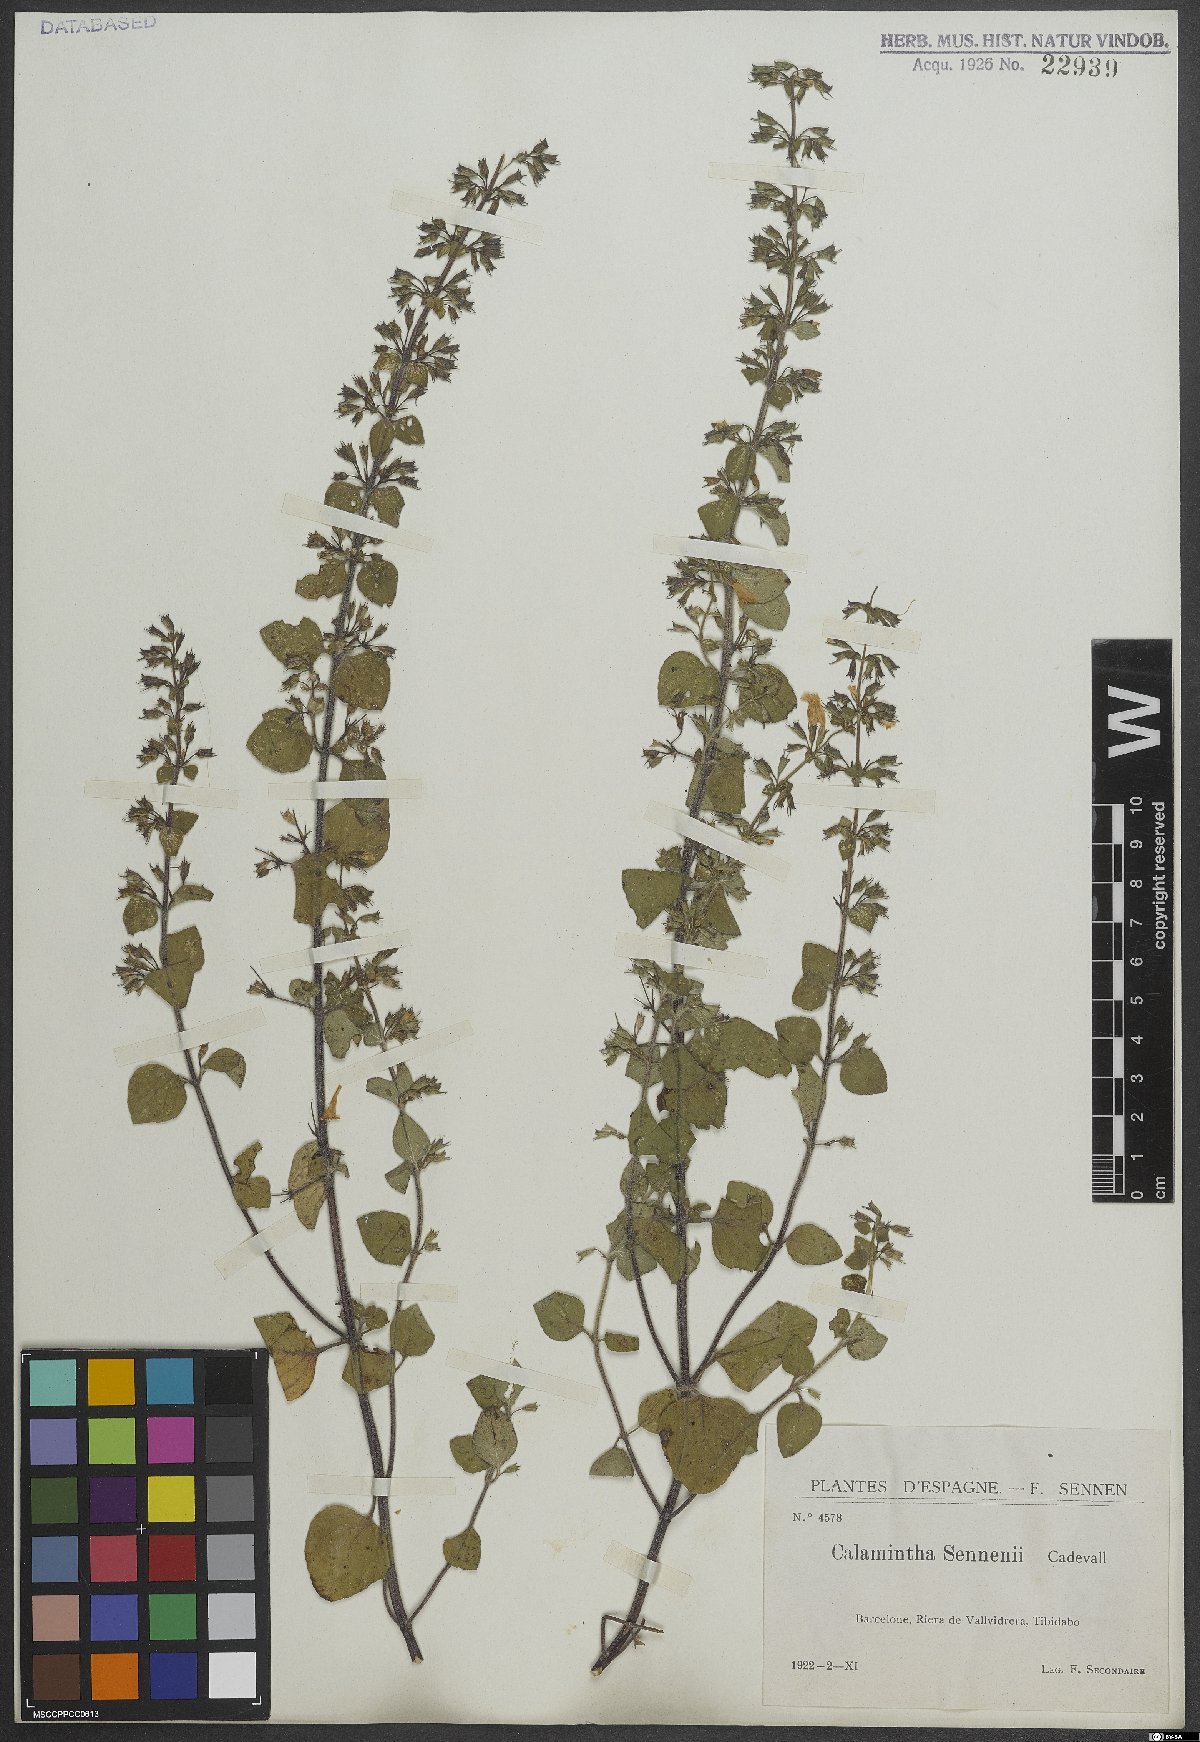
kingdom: Plantae
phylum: Tracheophyta
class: Magnoliopsida
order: Lamiales
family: Lamiaceae
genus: Clinopodium
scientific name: Clinopodium nepeta
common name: Lesser calamint
